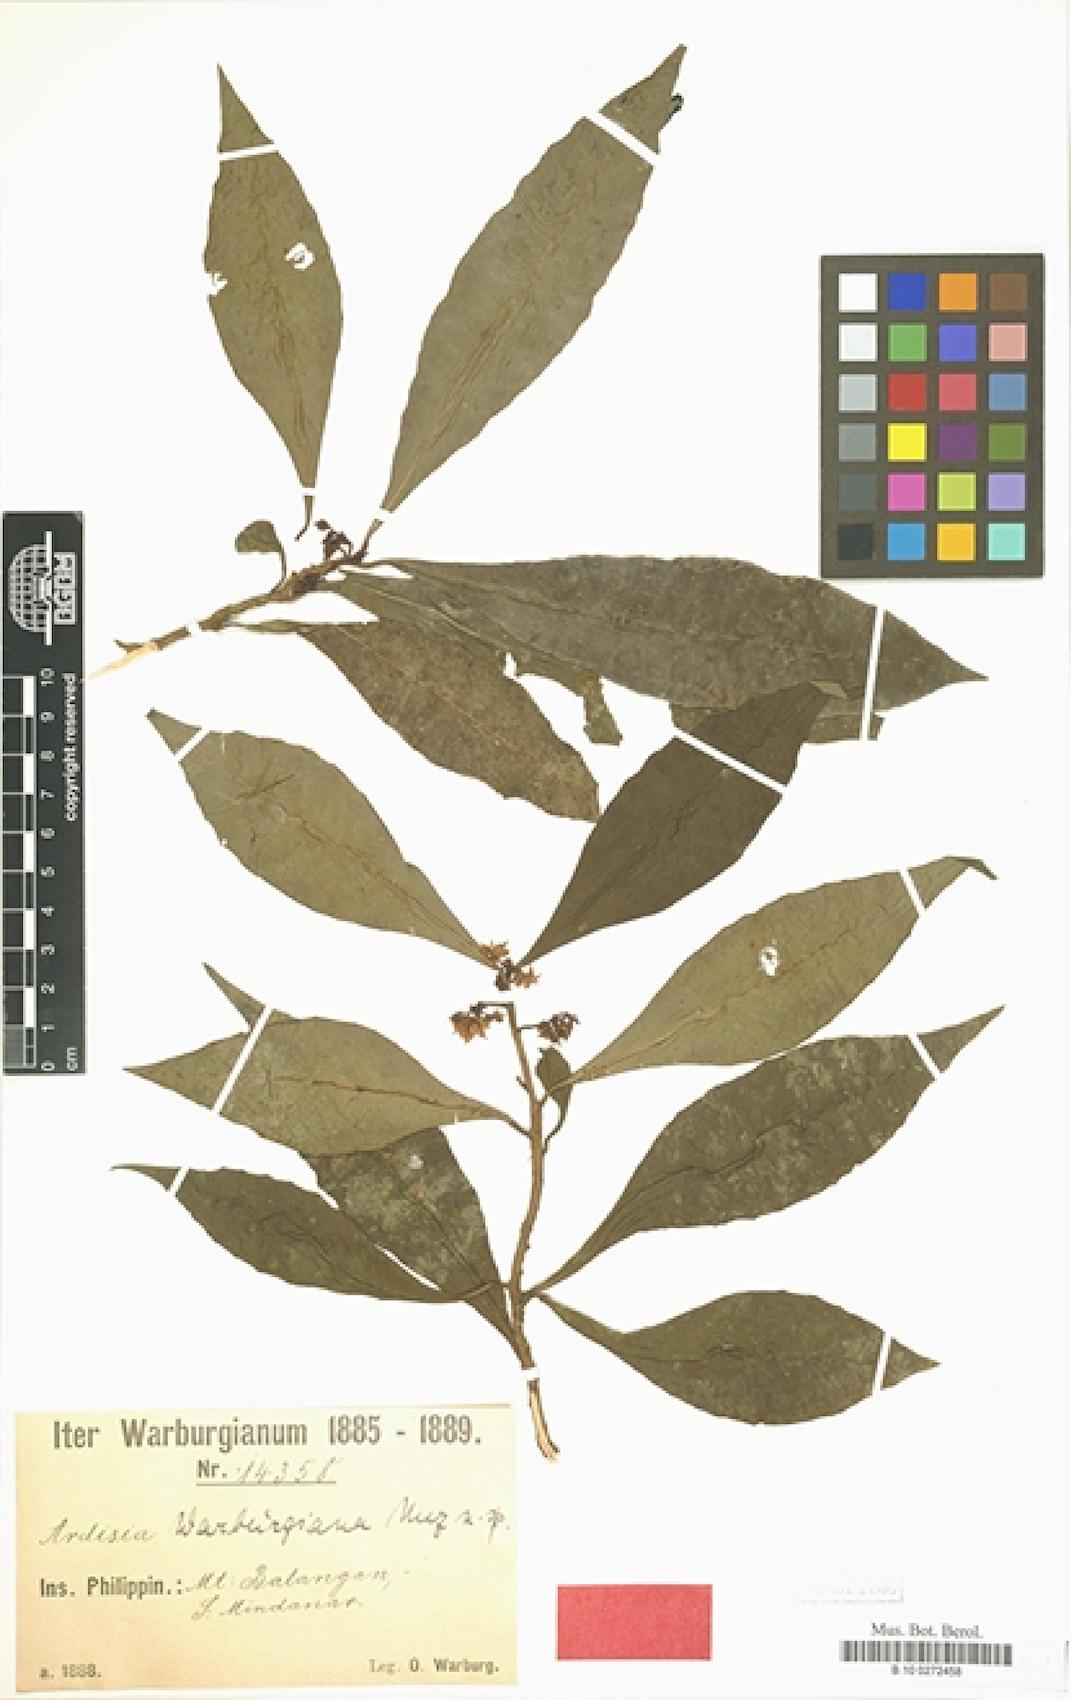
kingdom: Plantae
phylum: Tracheophyta
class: Magnoliopsida
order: Ericales
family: Primulaceae
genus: Ardisia
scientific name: Ardisia warburgiana
